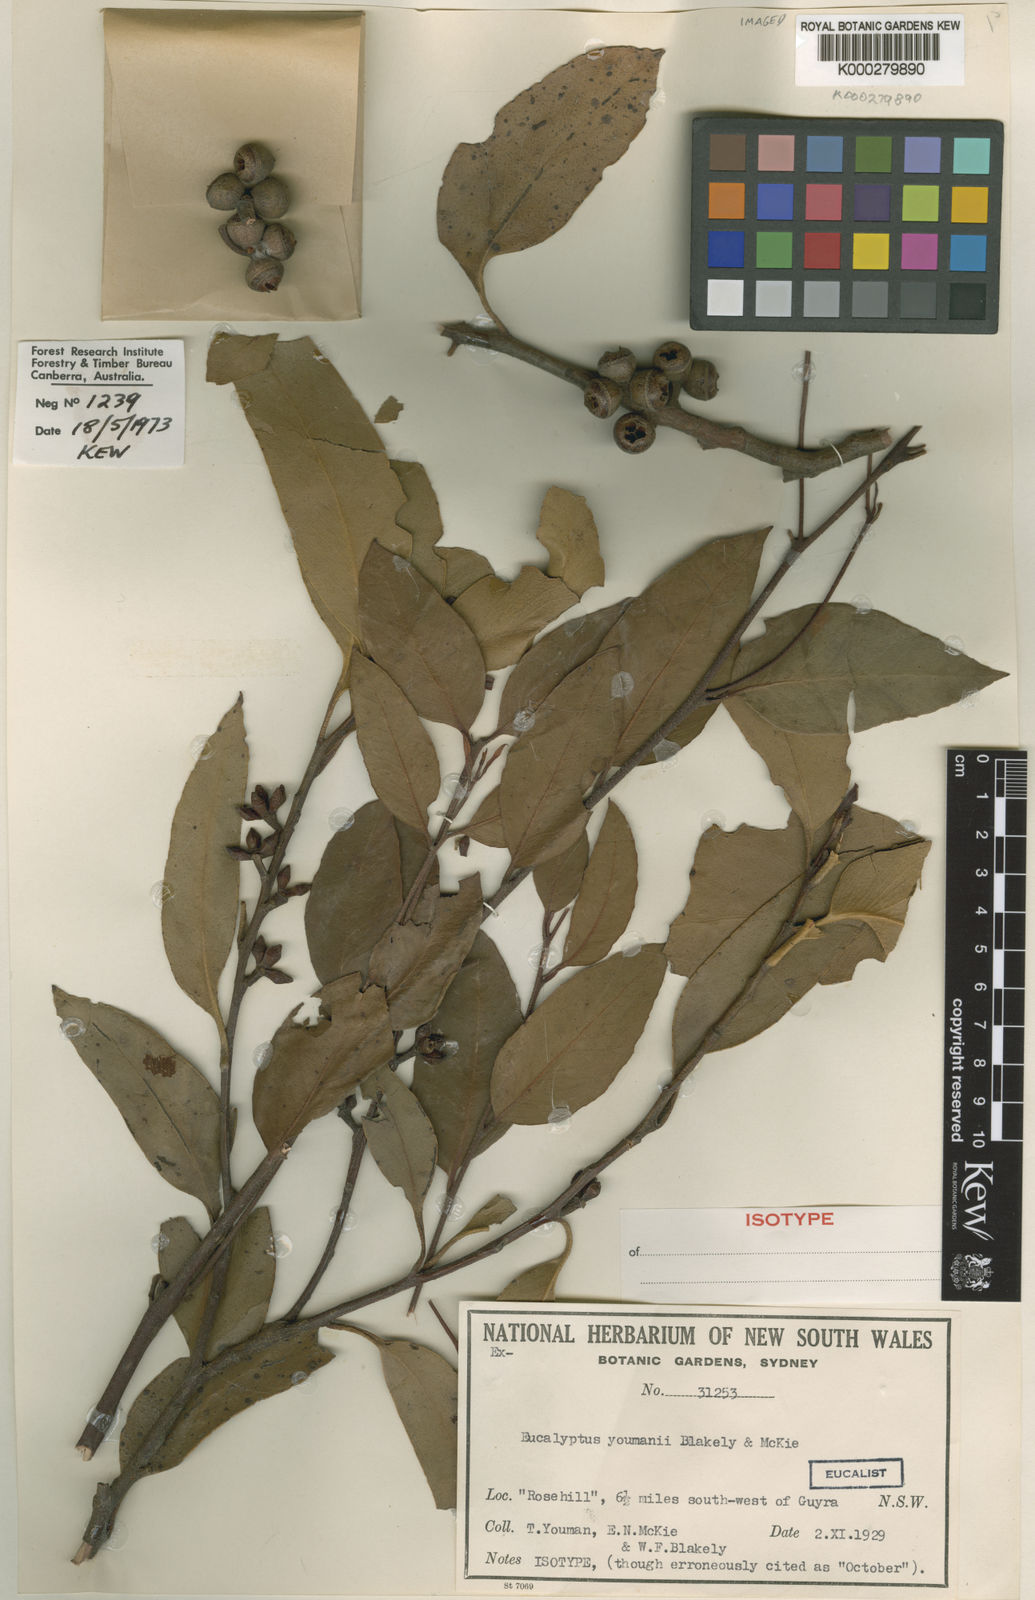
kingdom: Plantae
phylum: Tracheophyta
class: Magnoliopsida
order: Myrtales
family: Myrtaceae
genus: Eucalyptus
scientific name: Eucalyptus youmanii
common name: Youman's stringybark
